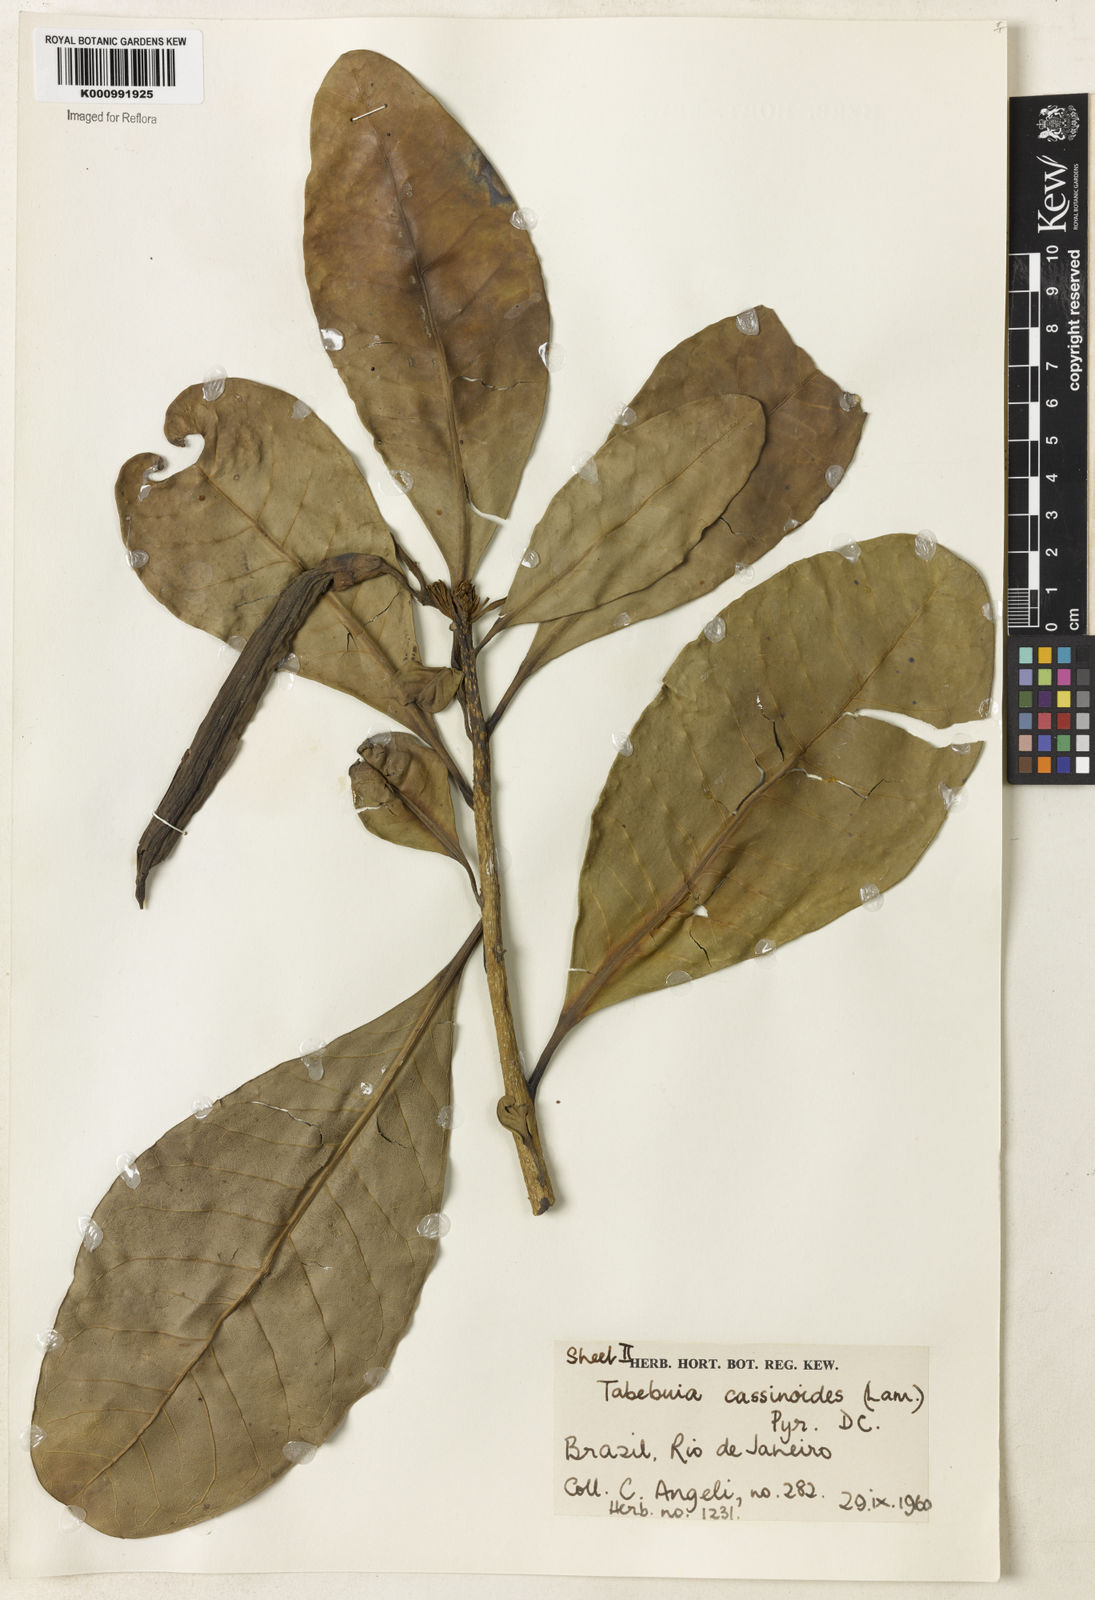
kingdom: Plantae
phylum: Tracheophyta
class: Magnoliopsida
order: Lamiales
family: Bignoniaceae
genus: Tabebuia
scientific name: Tabebuia cassinoides
